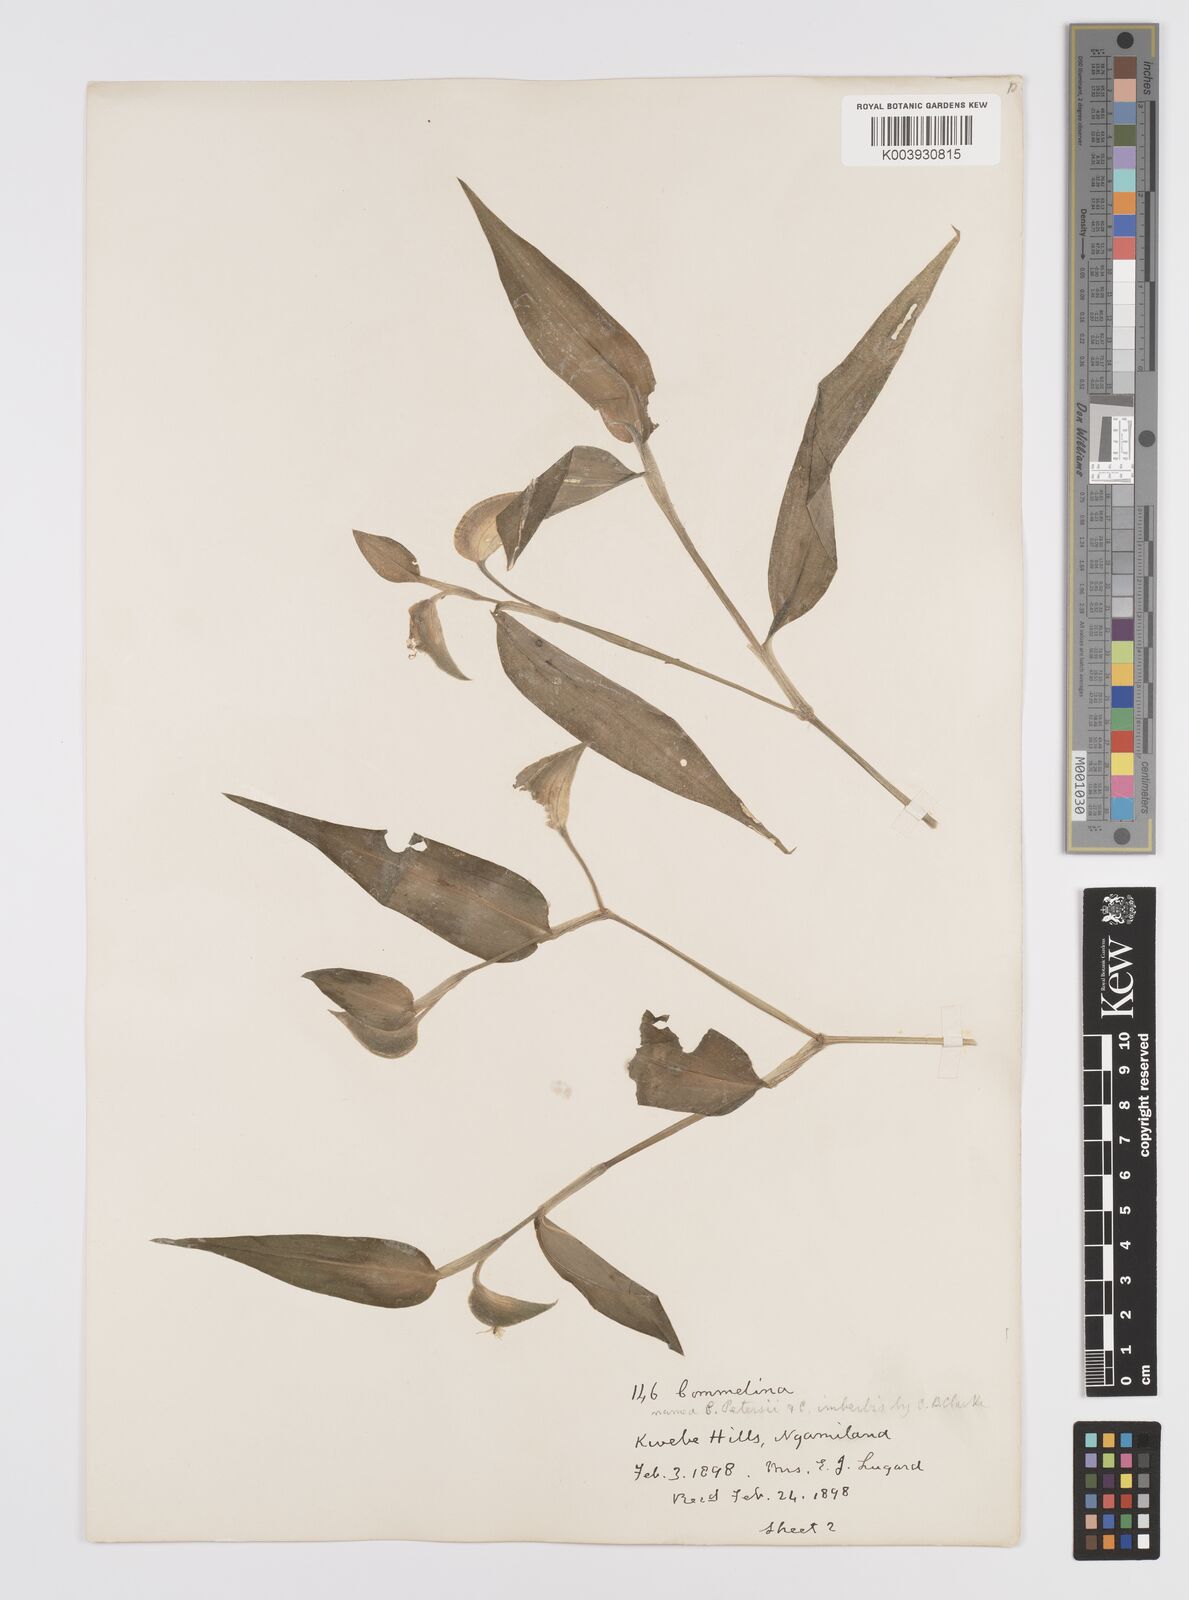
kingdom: Plantae
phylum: Tracheophyta
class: Liliopsida
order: Commelinales
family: Commelinaceae
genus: Commelina
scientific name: Commelina petersii
